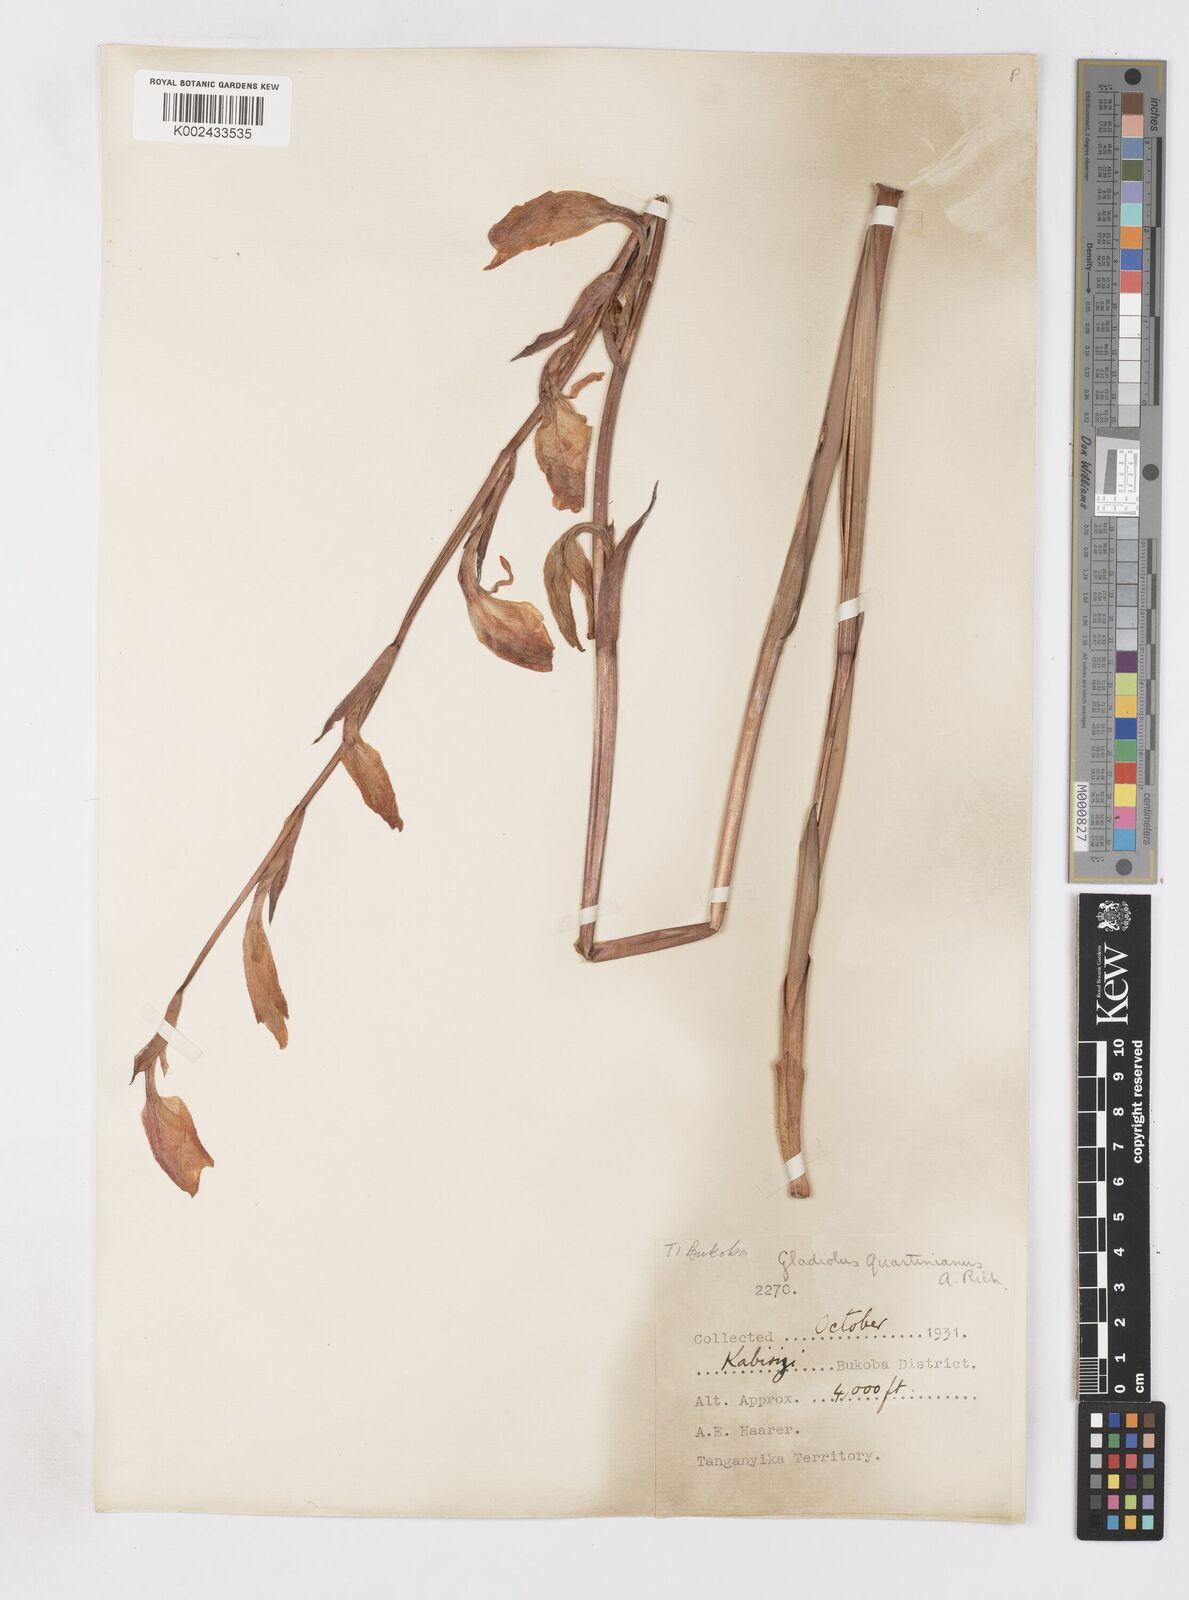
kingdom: Plantae
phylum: Tracheophyta
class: Liliopsida
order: Asparagales
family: Iridaceae
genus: Gladiolus
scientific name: Gladiolus dalenii
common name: Cornflag
